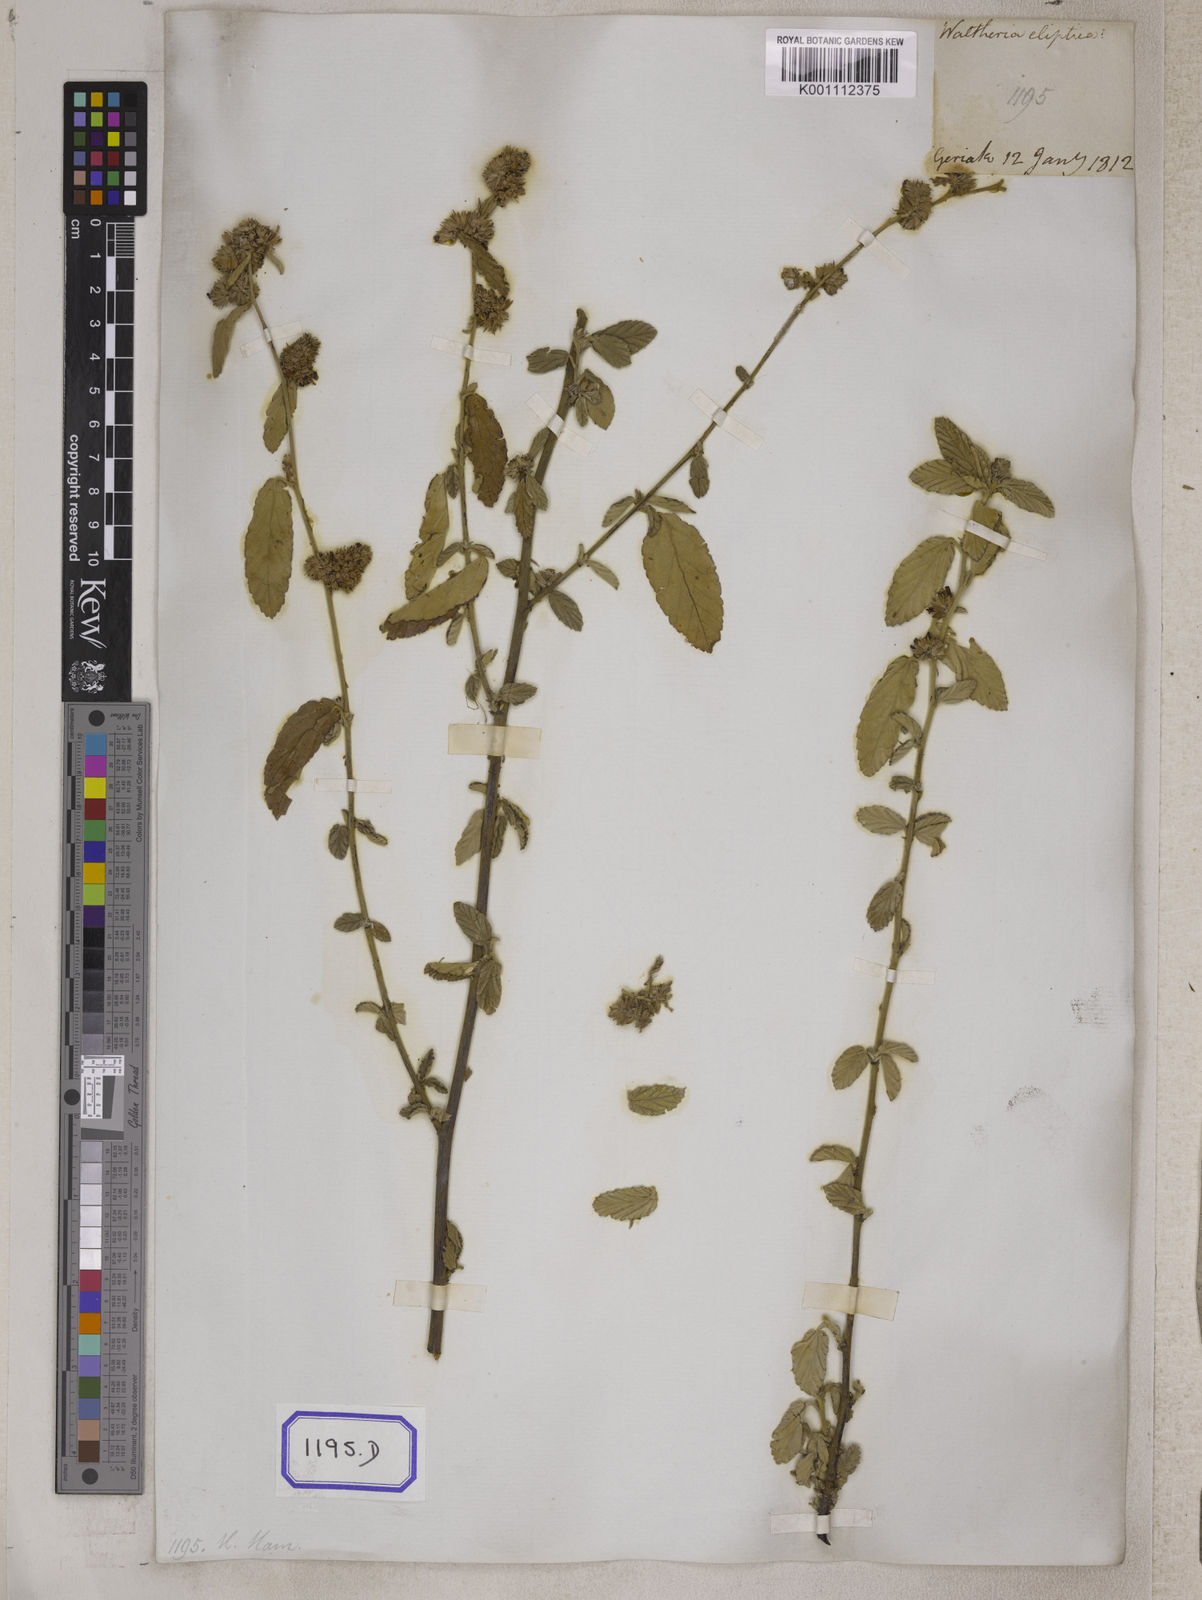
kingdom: Plantae
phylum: Tracheophyta
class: Magnoliopsida
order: Malvales
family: Malvaceae
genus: Waltheria
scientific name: Waltheria indica
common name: Leather-coat
